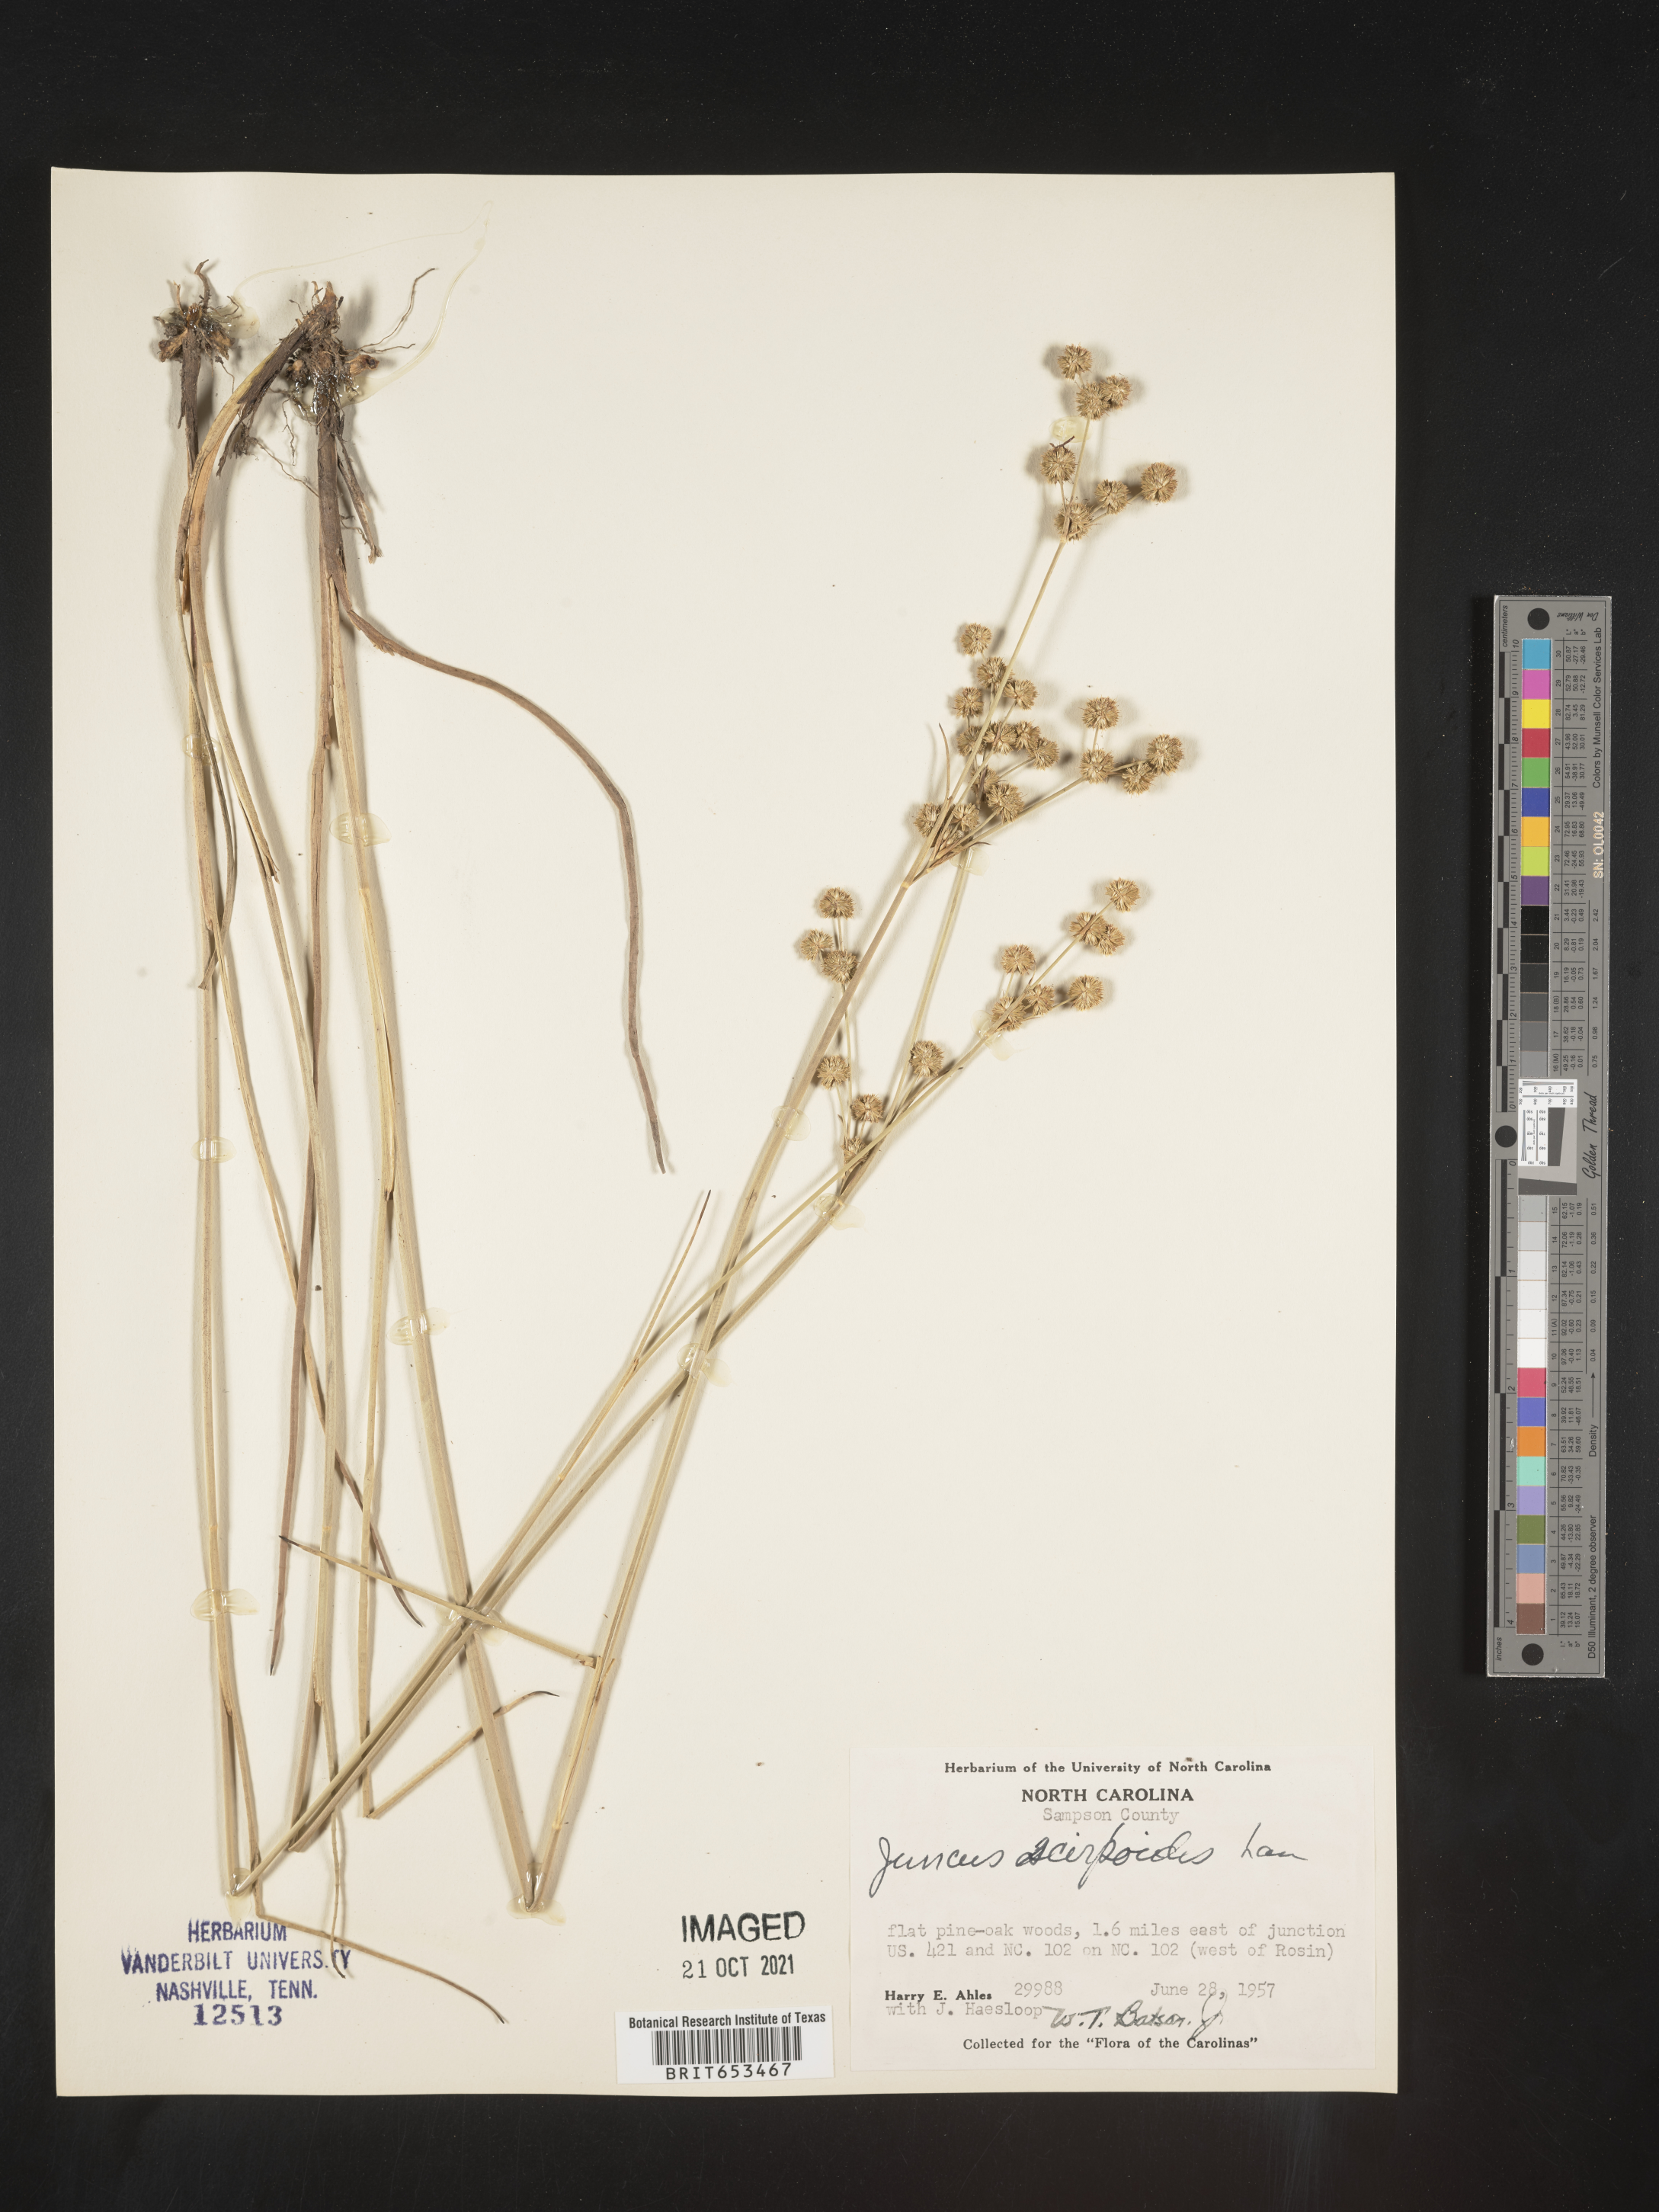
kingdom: Plantae
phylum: Tracheophyta
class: Liliopsida
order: Poales
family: Juncaceae
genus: Juncus
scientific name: Juncus scirpoides
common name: Needlepod rush
